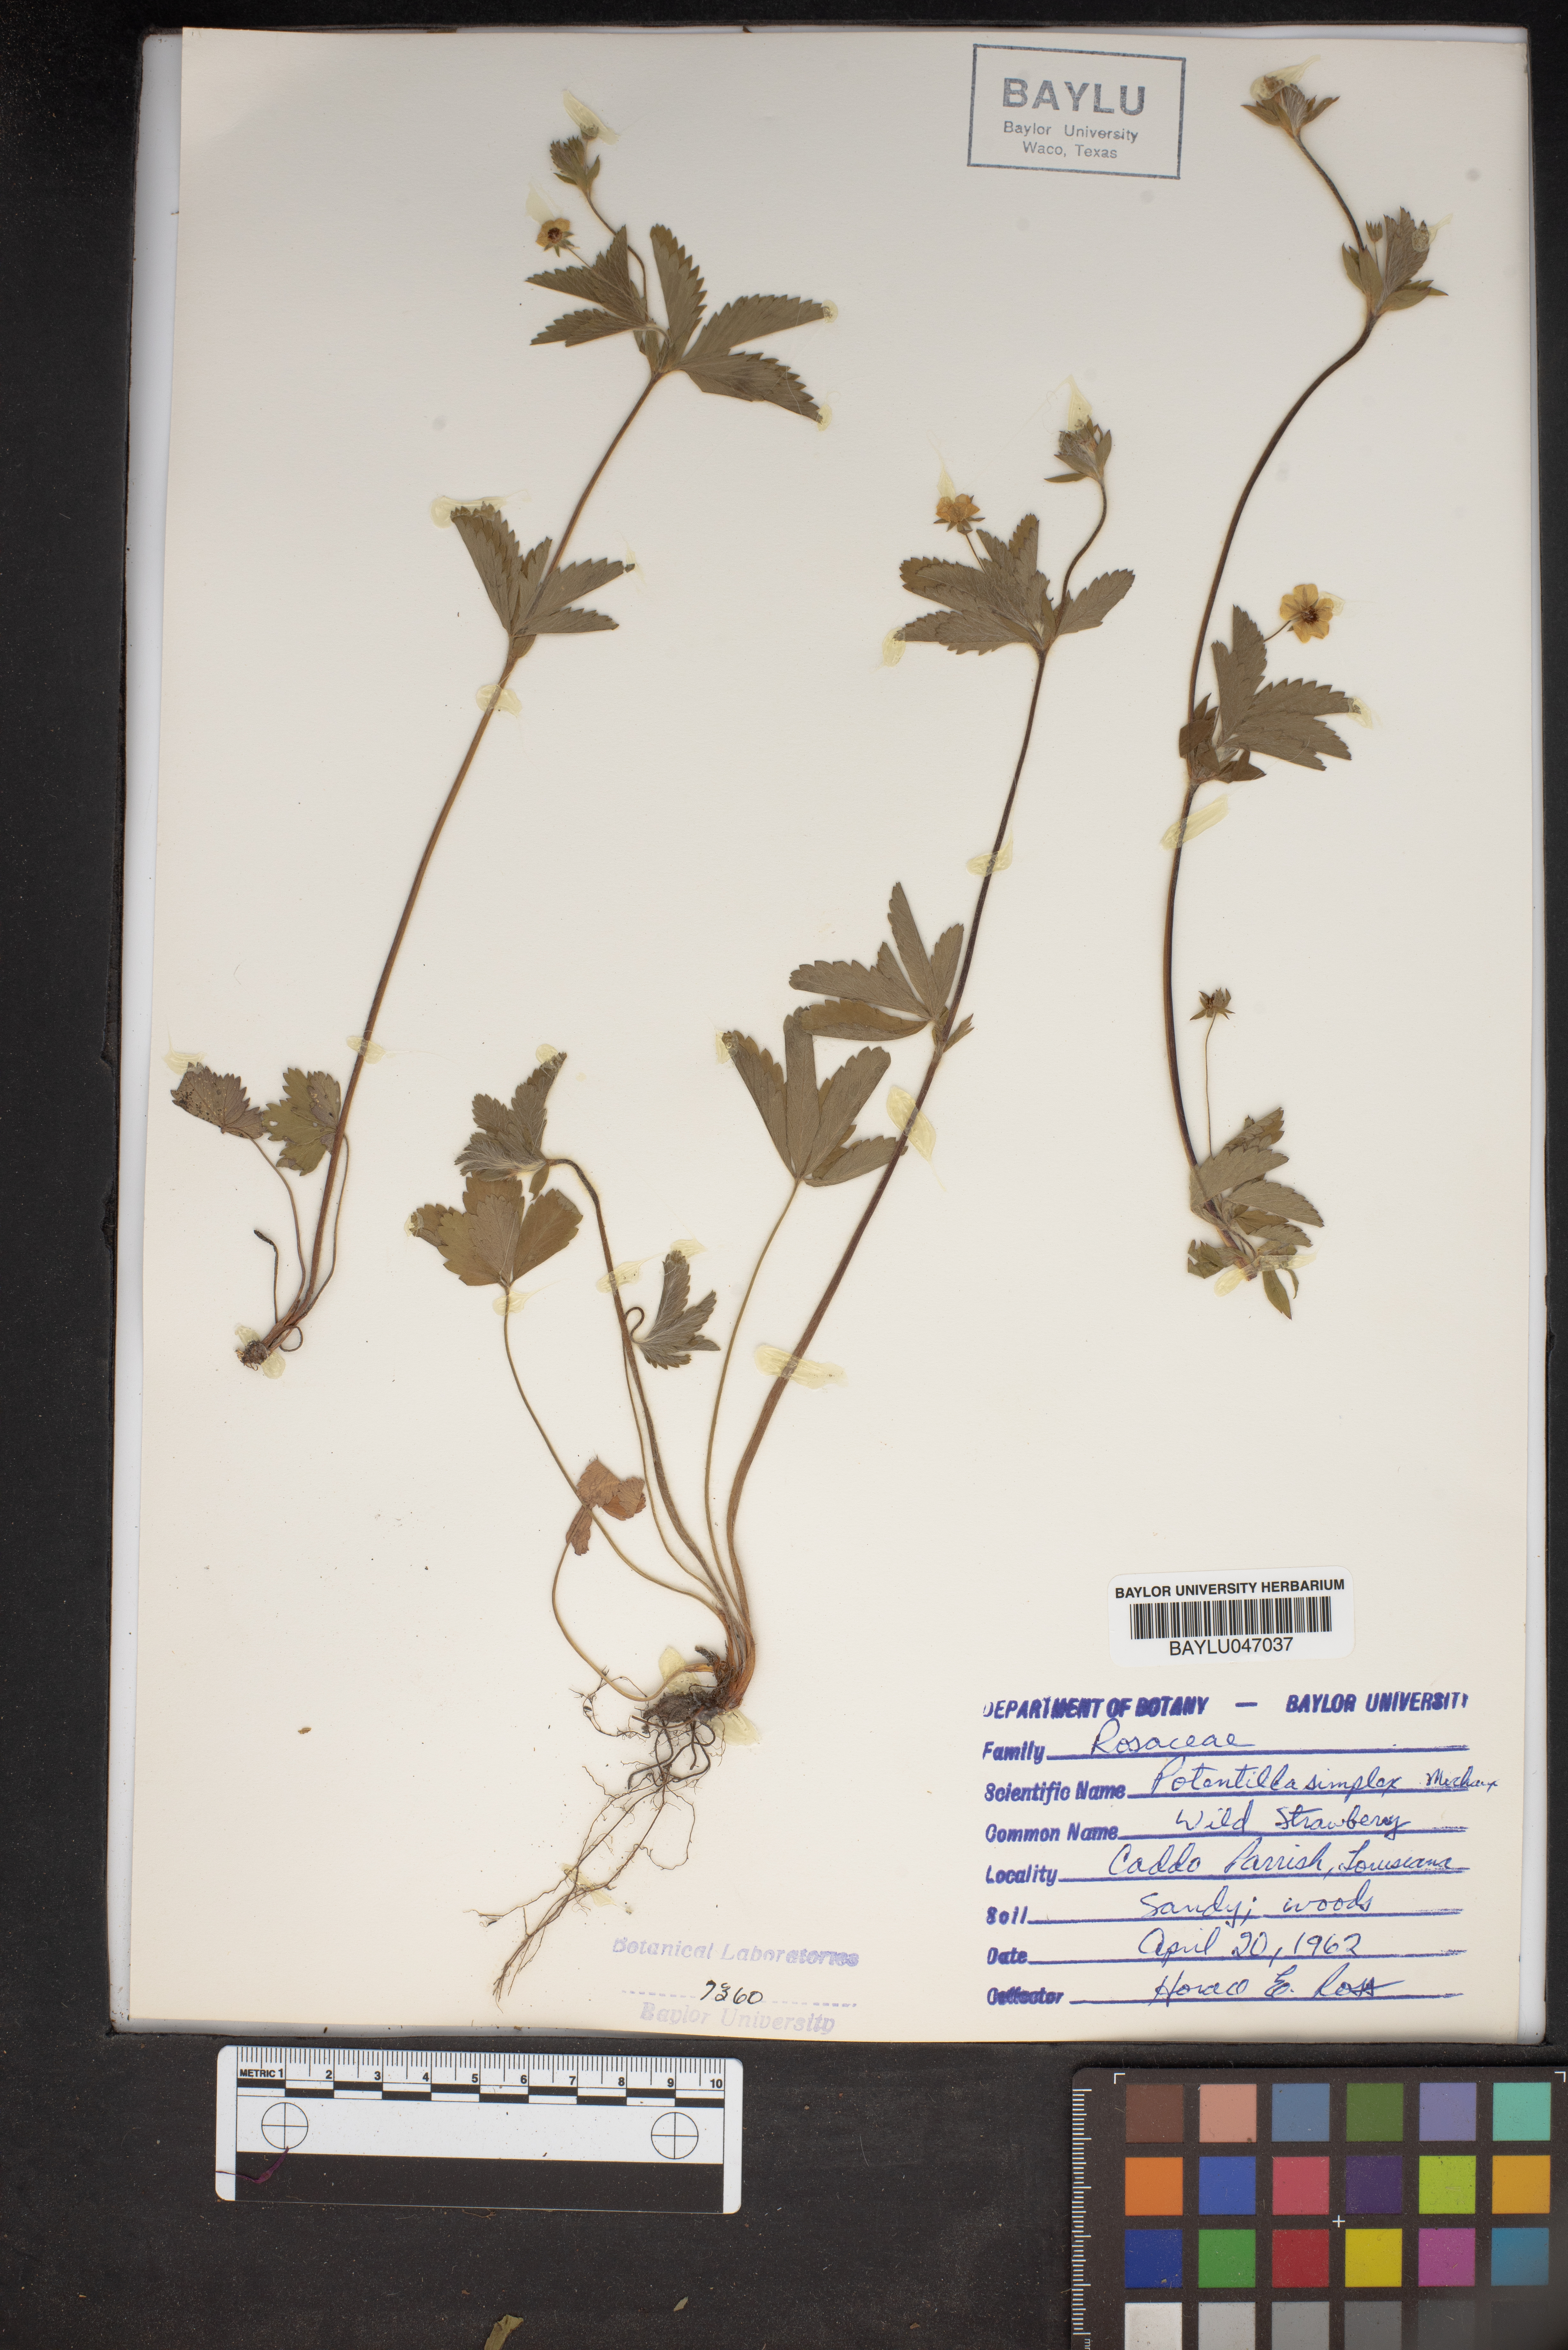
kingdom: Plantae
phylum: Tracheophyta
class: Magnoliopsida
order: Rosales
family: Rosaceae
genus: Potentilla
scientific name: Potentilla simplex
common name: Old field cinquefoil
